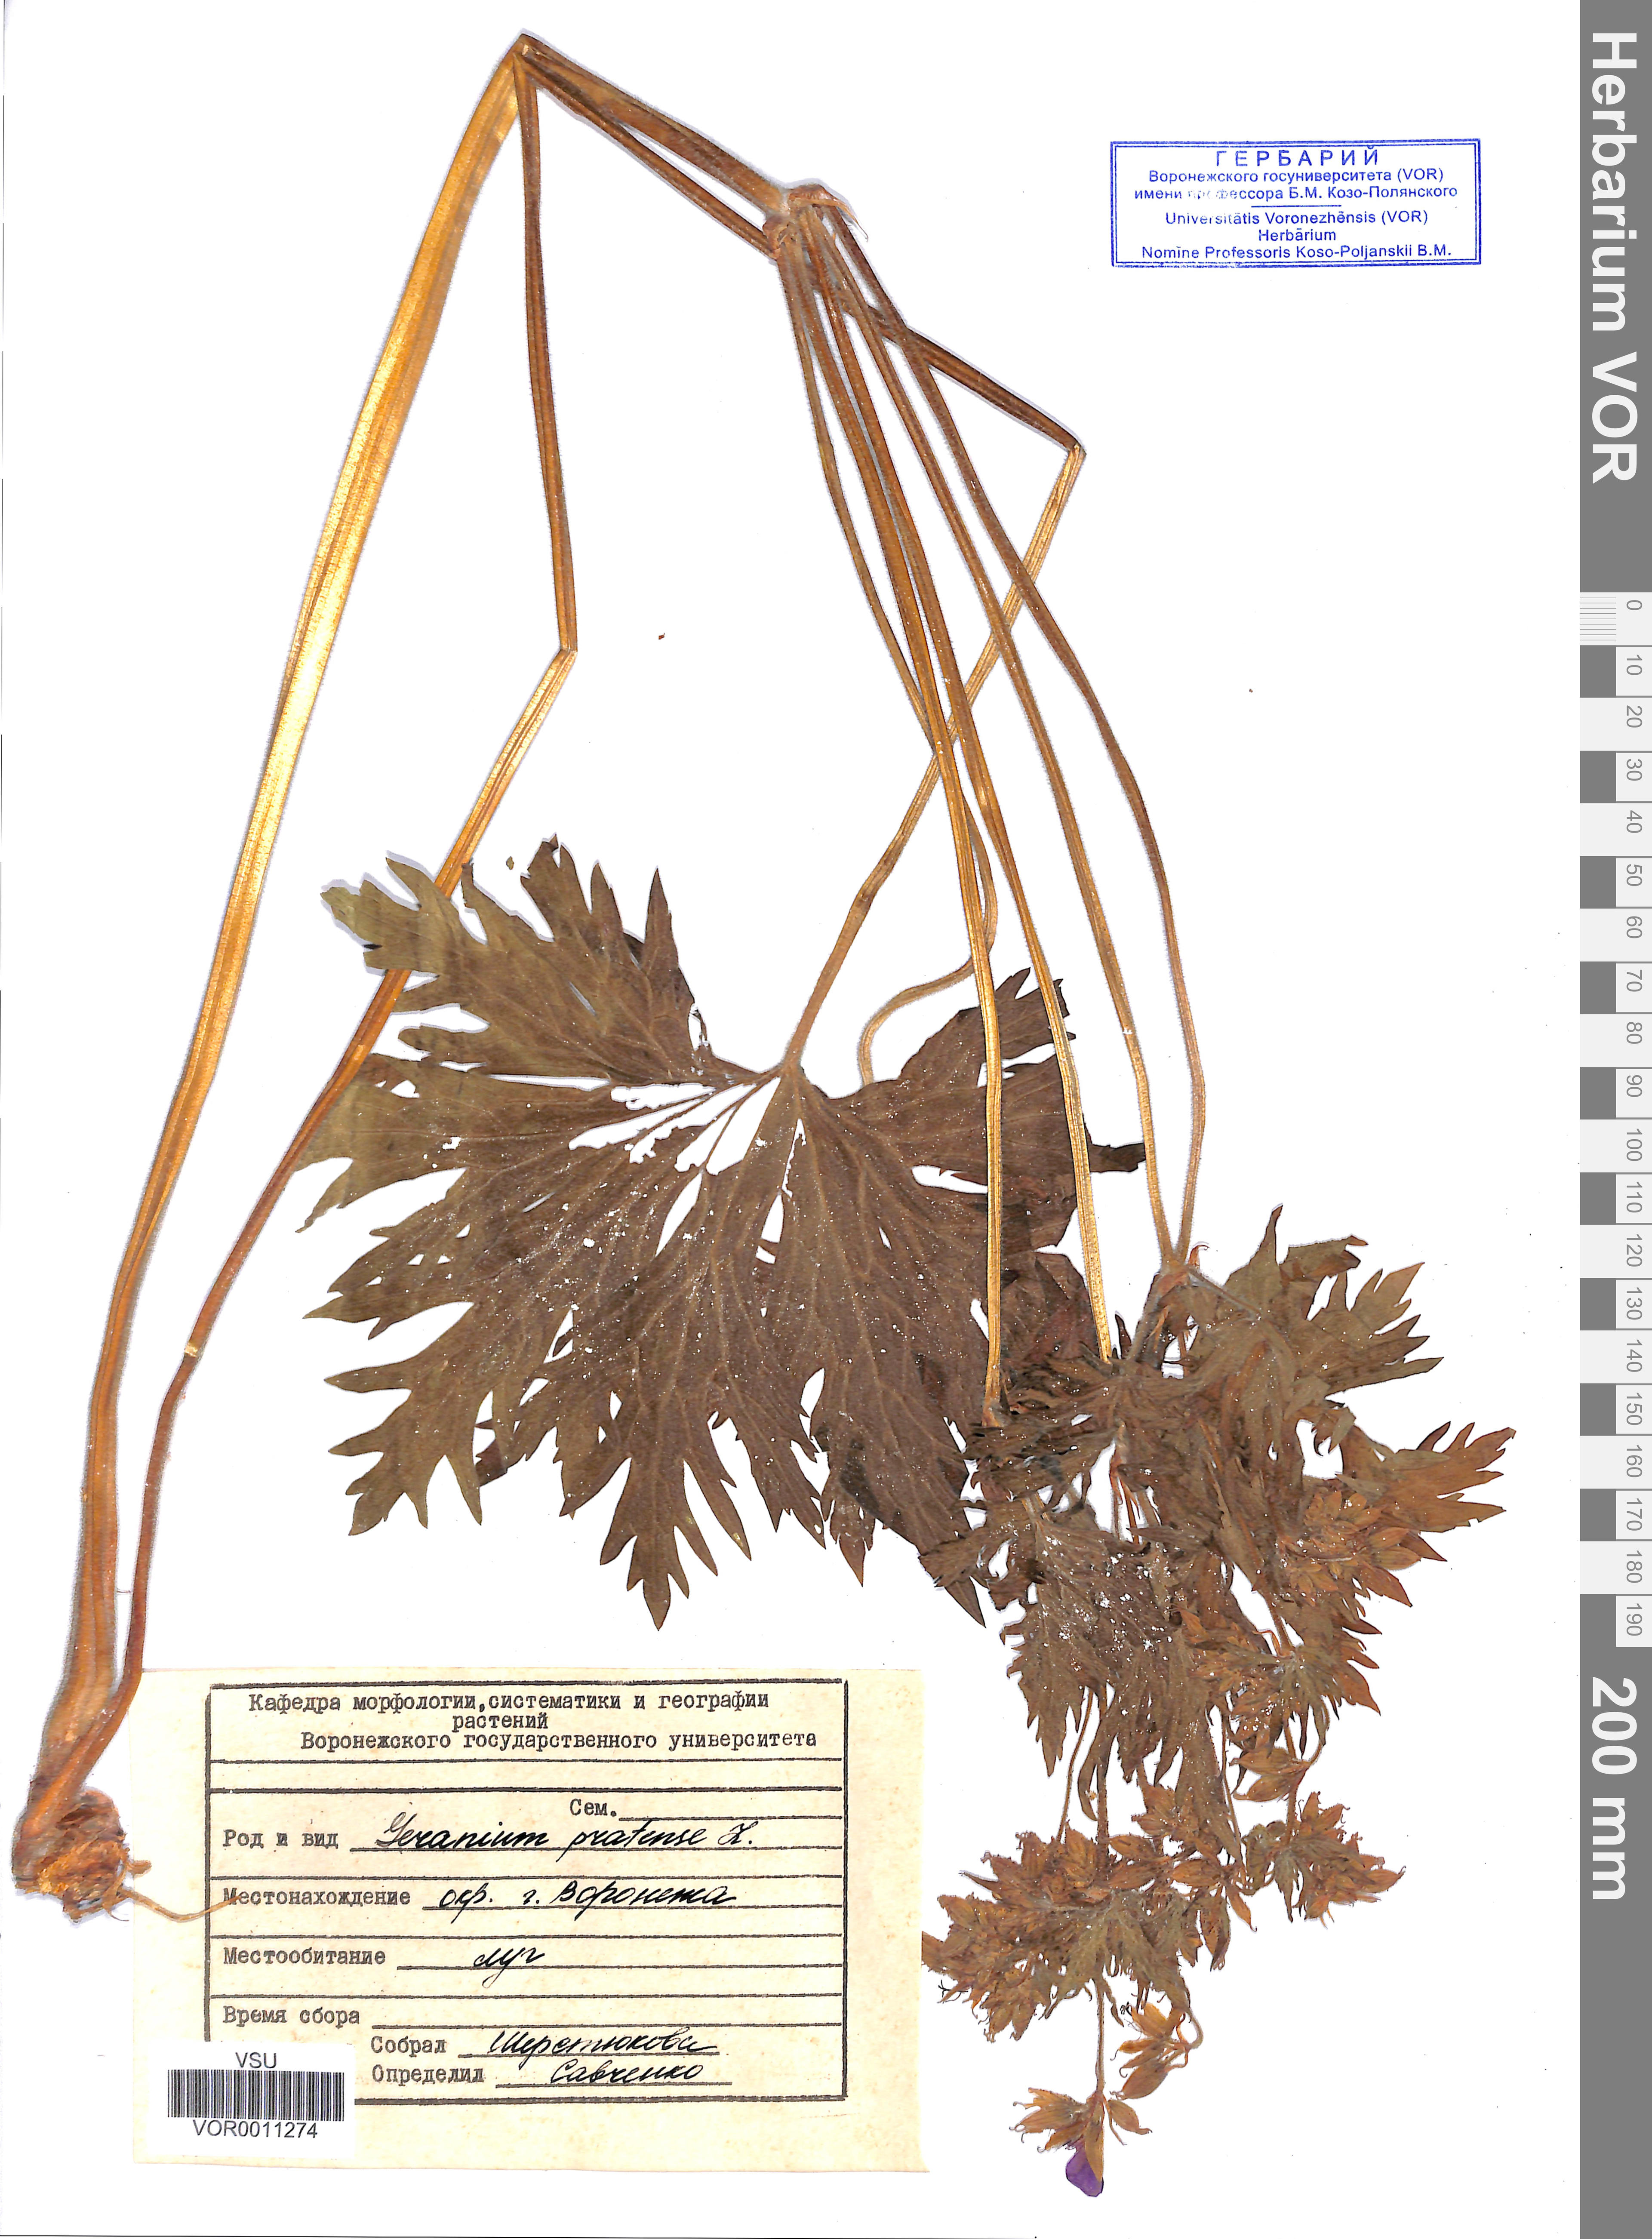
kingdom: Plantae
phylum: Tracheophyta
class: Magnoliopsida
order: Geraniales
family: Geraniaceae
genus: Geranium
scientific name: Geranium pratense
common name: Meadow crane's-bill
